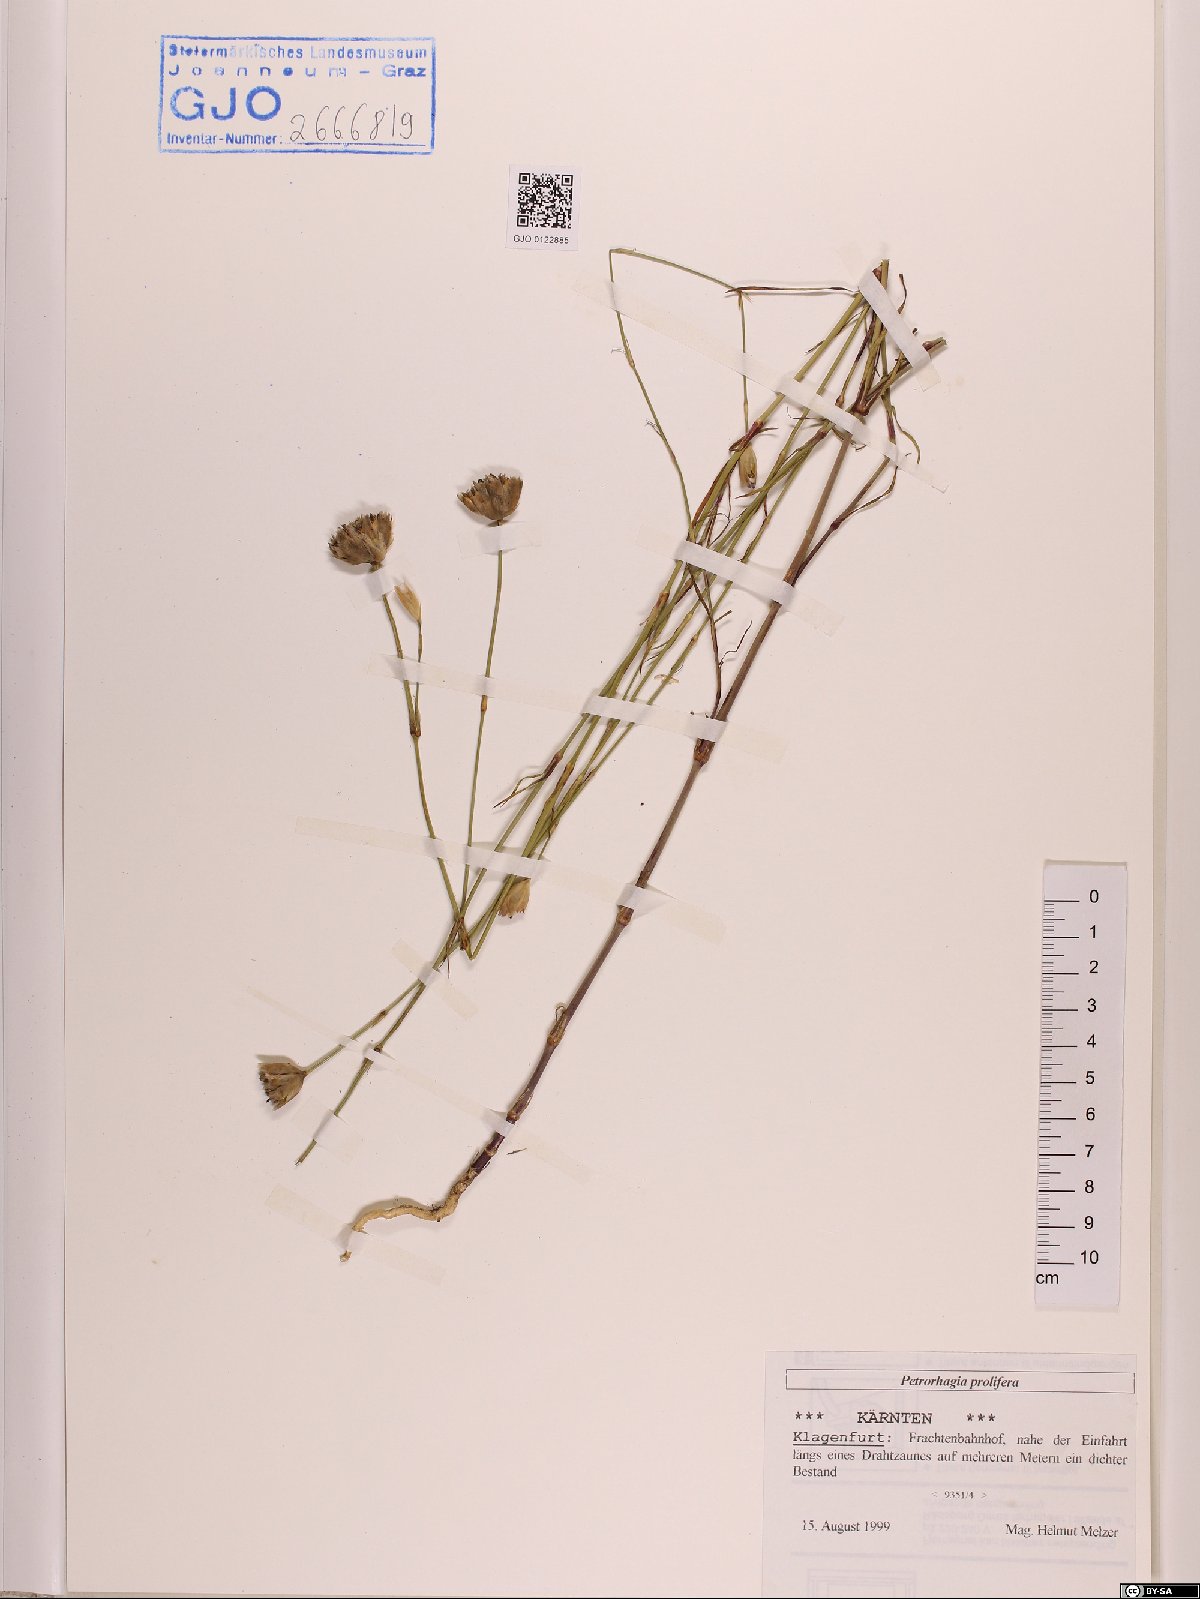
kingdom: Plantae
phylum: Tracheophyta
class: Magnoliopsida
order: Caryophyllales
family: Caryophyllaceae
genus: Petrorhagia
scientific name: Petrorhagia prolifera
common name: Proliferous pink
